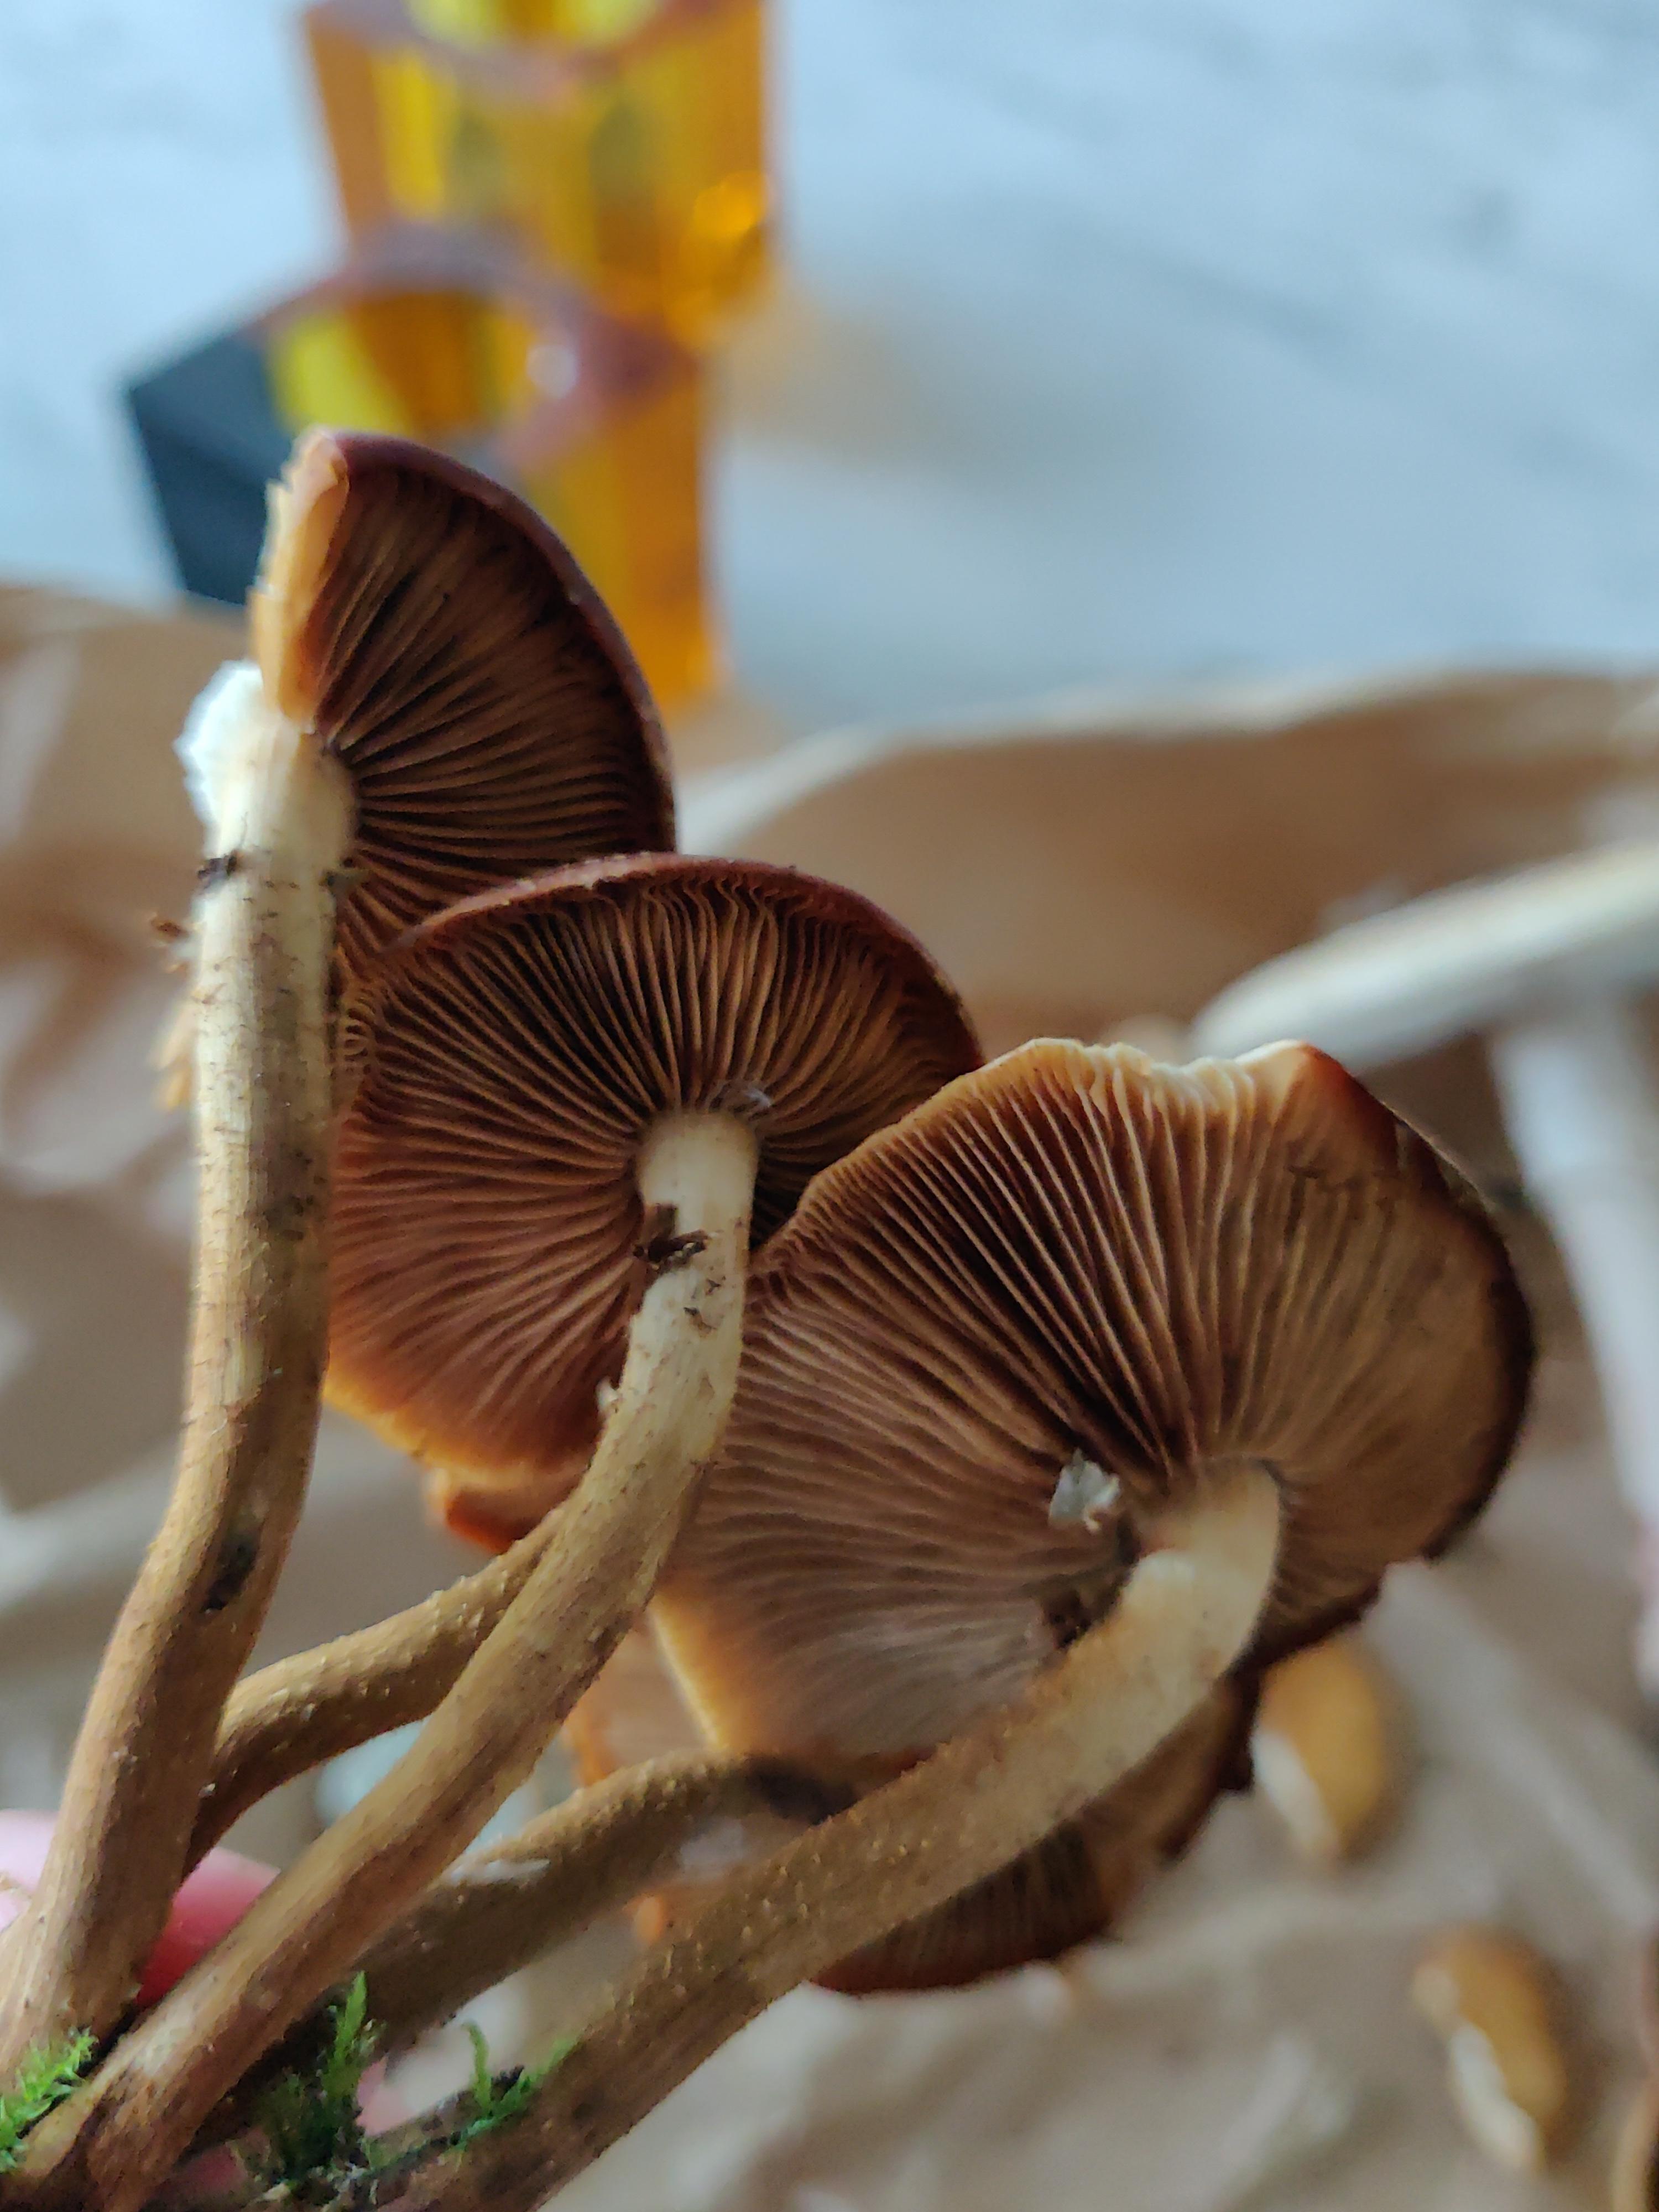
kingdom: Fungi
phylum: Basidiomycota
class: Agaricomycetes
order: Agaricales
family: Strophariaceae
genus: Kuehneromyces
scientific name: Kuehneromyces mutabilis
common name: foranderlig skælhat
